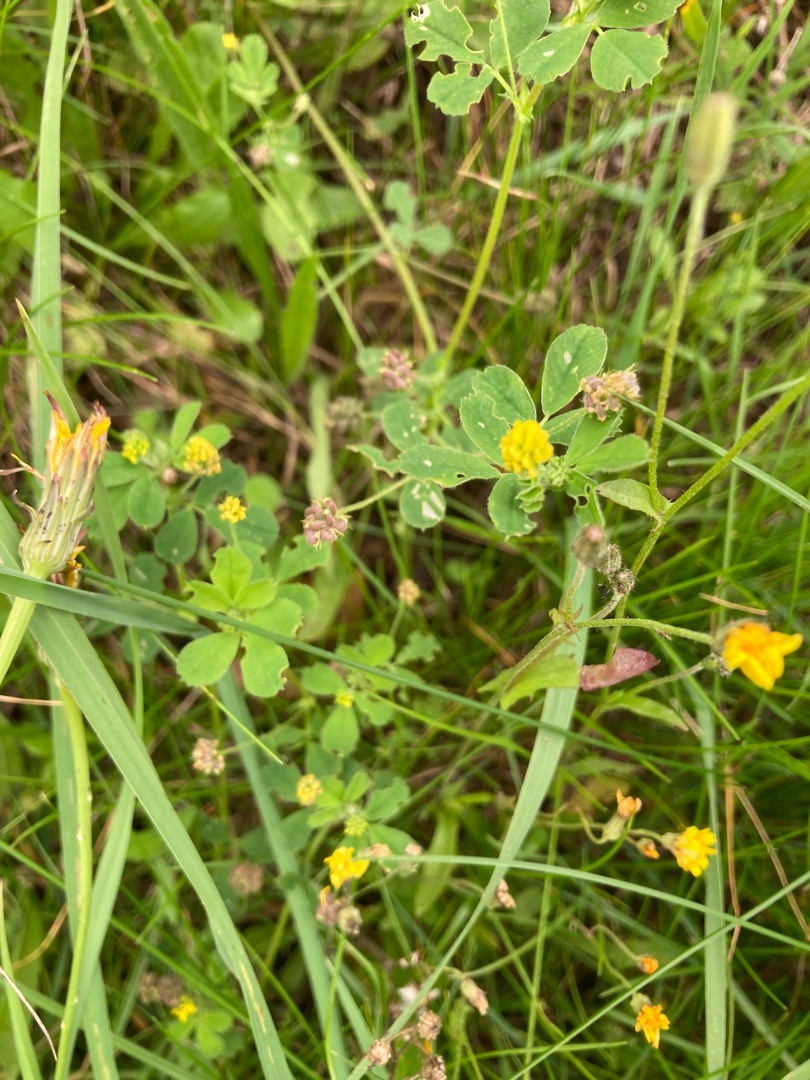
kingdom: Plantae
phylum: Tracheophyta
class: Magnoliopsida
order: Fabales
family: Fabaceae
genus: Medicago
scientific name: Medicago lupulina
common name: Humle-sneglebælg
